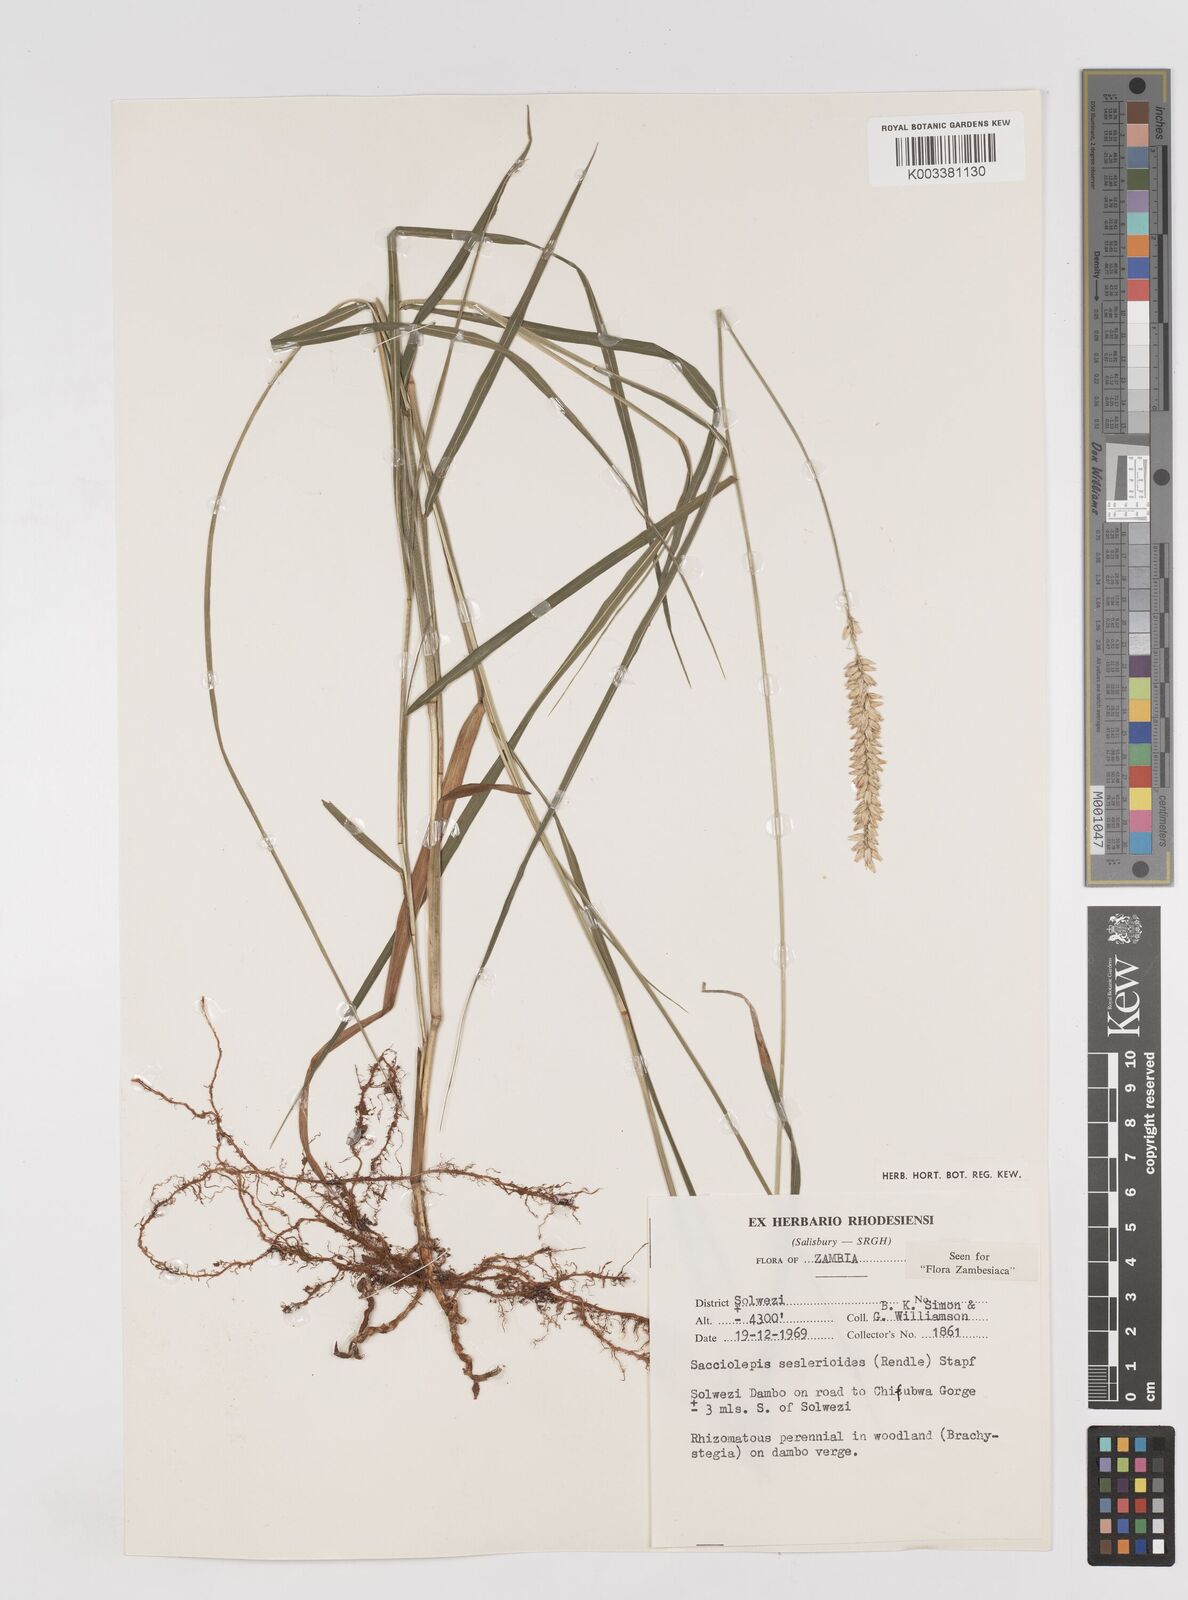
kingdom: Plantae
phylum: Tracheophyta
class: Liliopsida
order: Poales
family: Poaceae
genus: Sacciolepis
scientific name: Sacciolepis seslerioides
